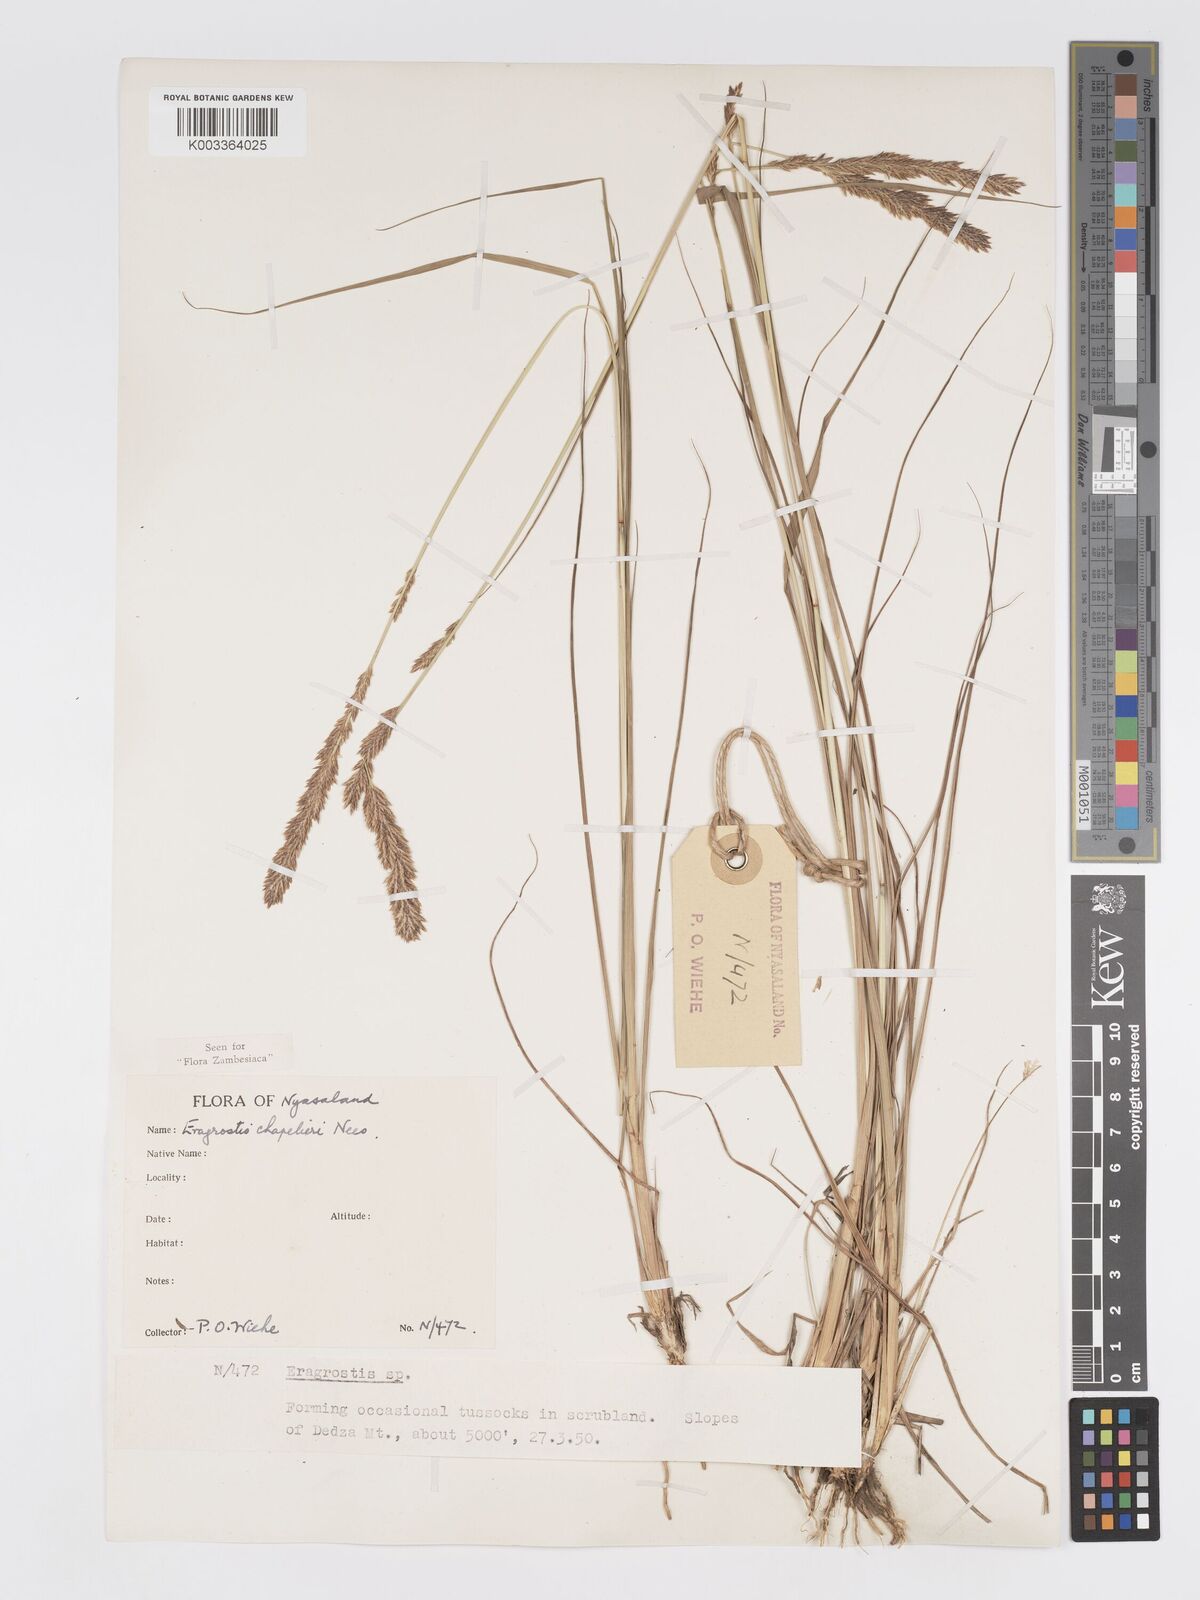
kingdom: Plantae
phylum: Tracheophyta
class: Liliopsida
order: Poales
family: Poaceae
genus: Eragrostis
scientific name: Eragrostis chapelieri
